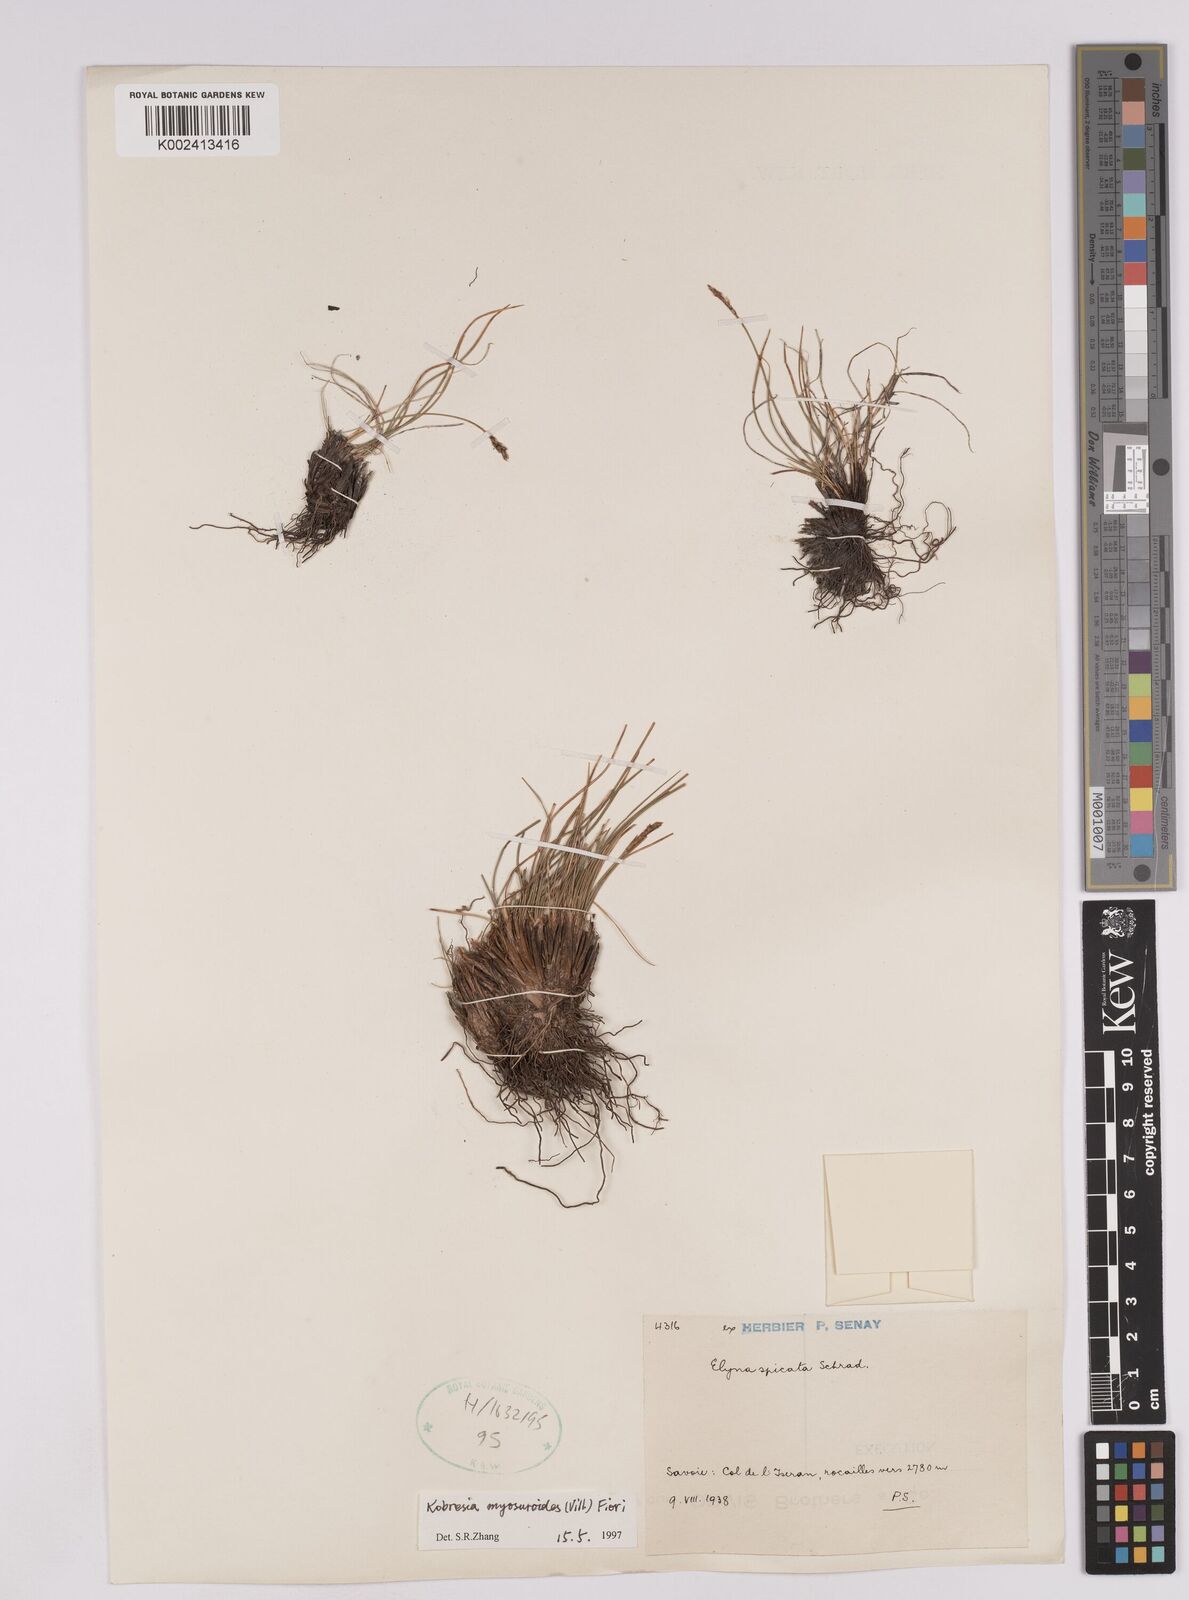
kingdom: Plantae
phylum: Tracheophyta
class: Liliopsida
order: Poales
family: Cyperaceae
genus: Carex
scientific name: Carex myosuroides
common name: Bellard's bog sedge
